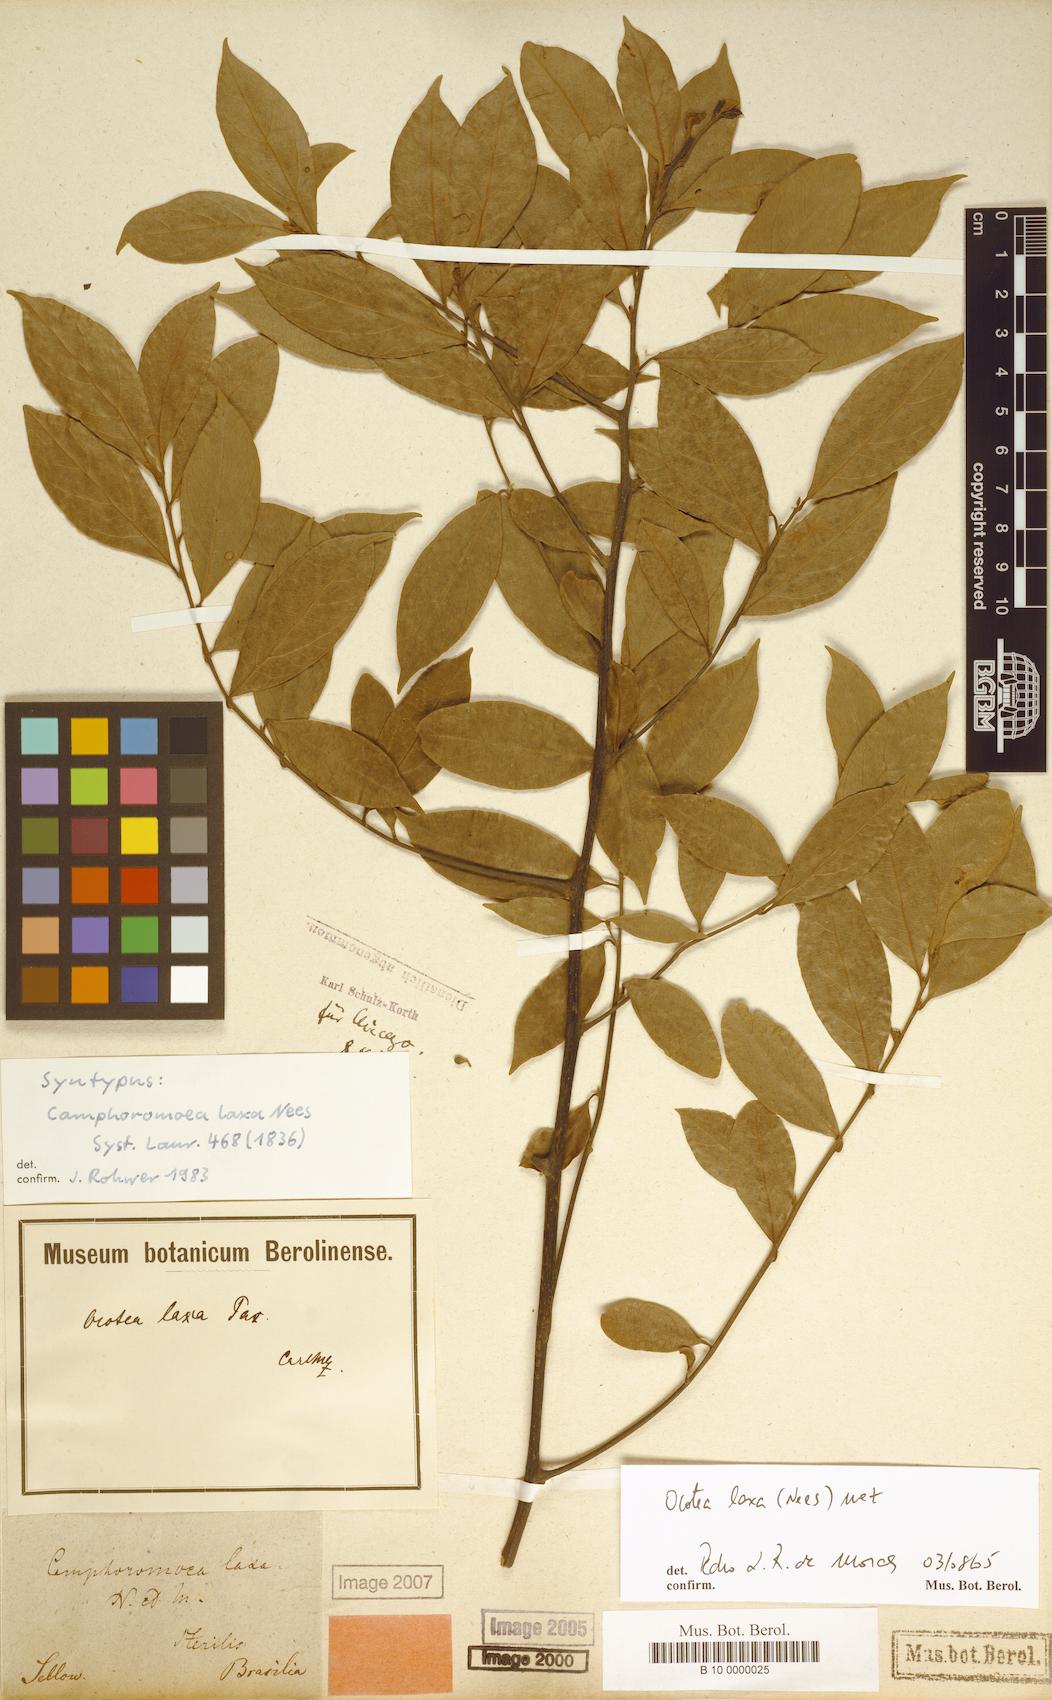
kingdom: Plantae
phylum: Tracheophyta
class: Magnoliopsida
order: Laurales
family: Lauraceae
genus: Ocotea
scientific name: Ocotea laxa
